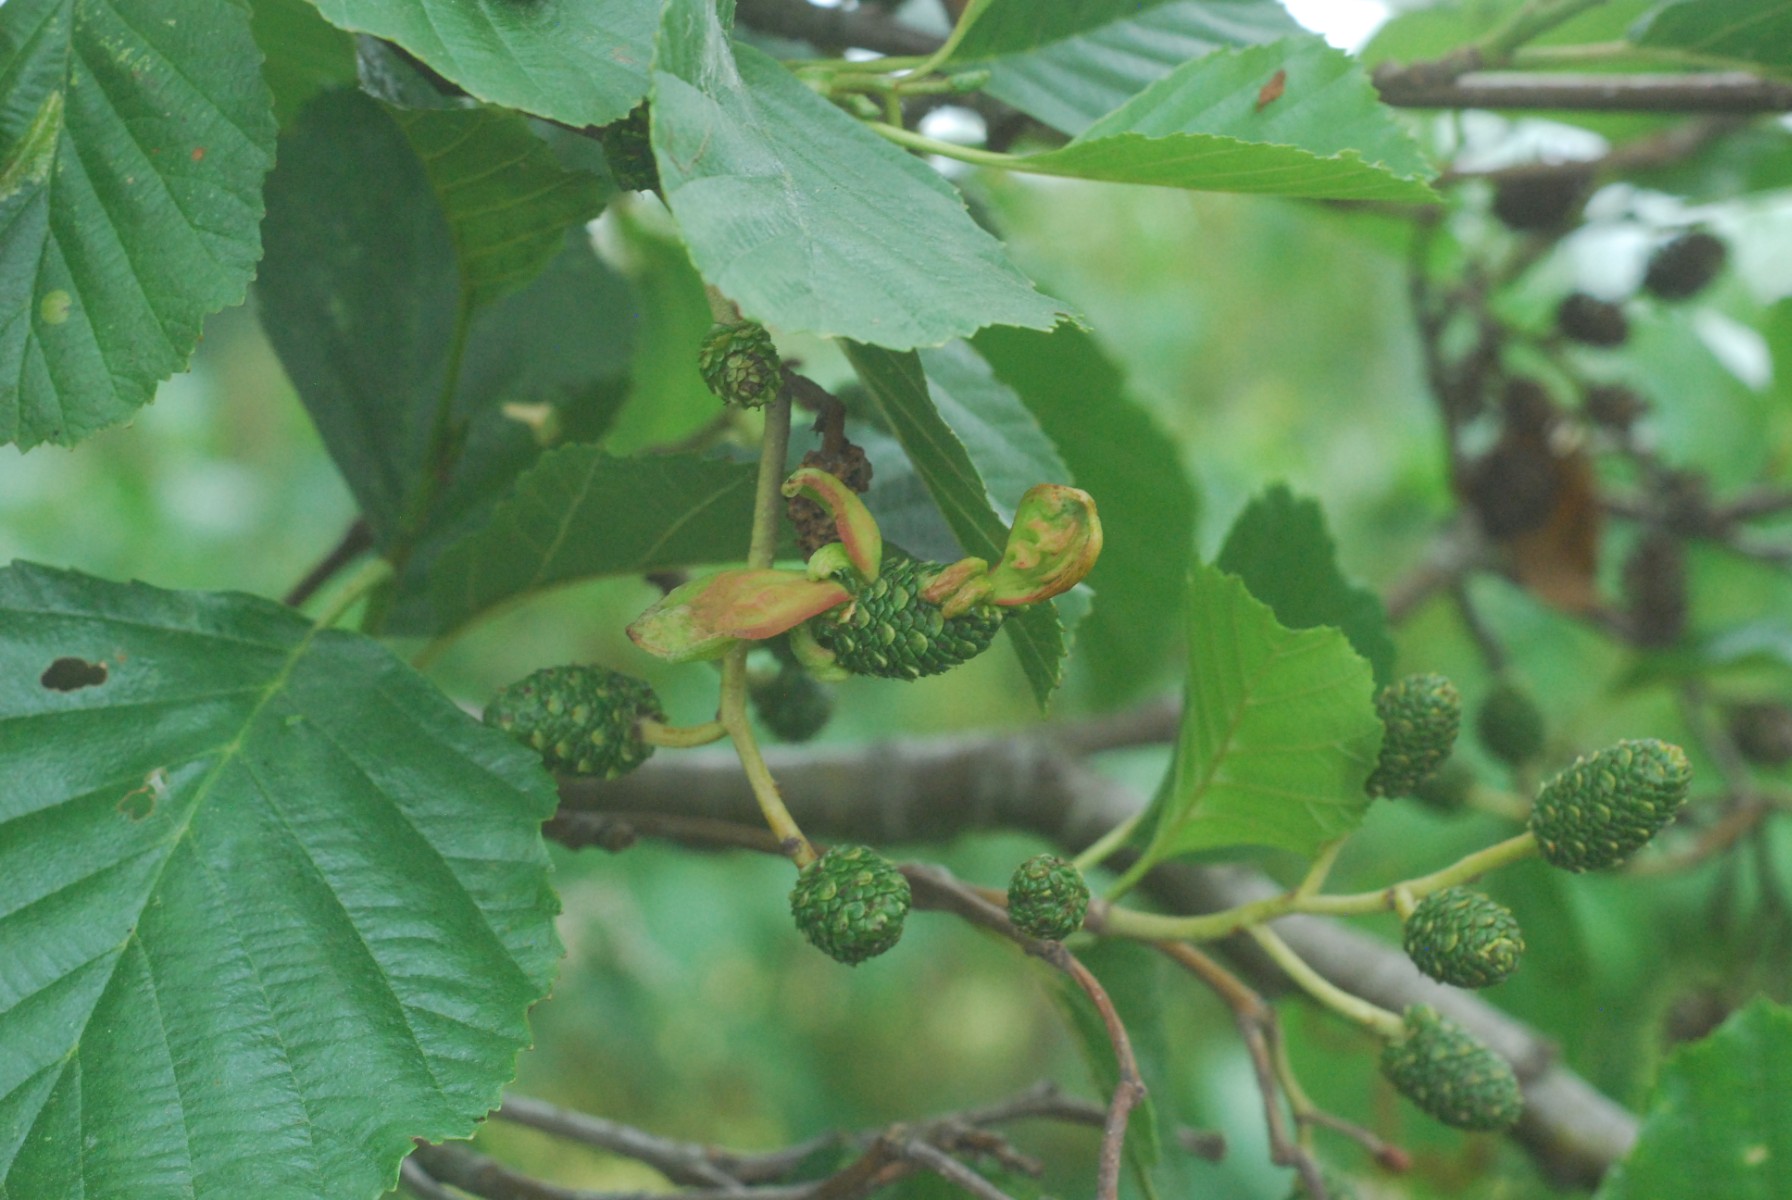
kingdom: Fungi
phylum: Ascomycota
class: Taphrinomycetes
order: Taphrinales
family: Taphrinaceae
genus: Taphrina
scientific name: Taphrina alni
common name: Alder tongue
